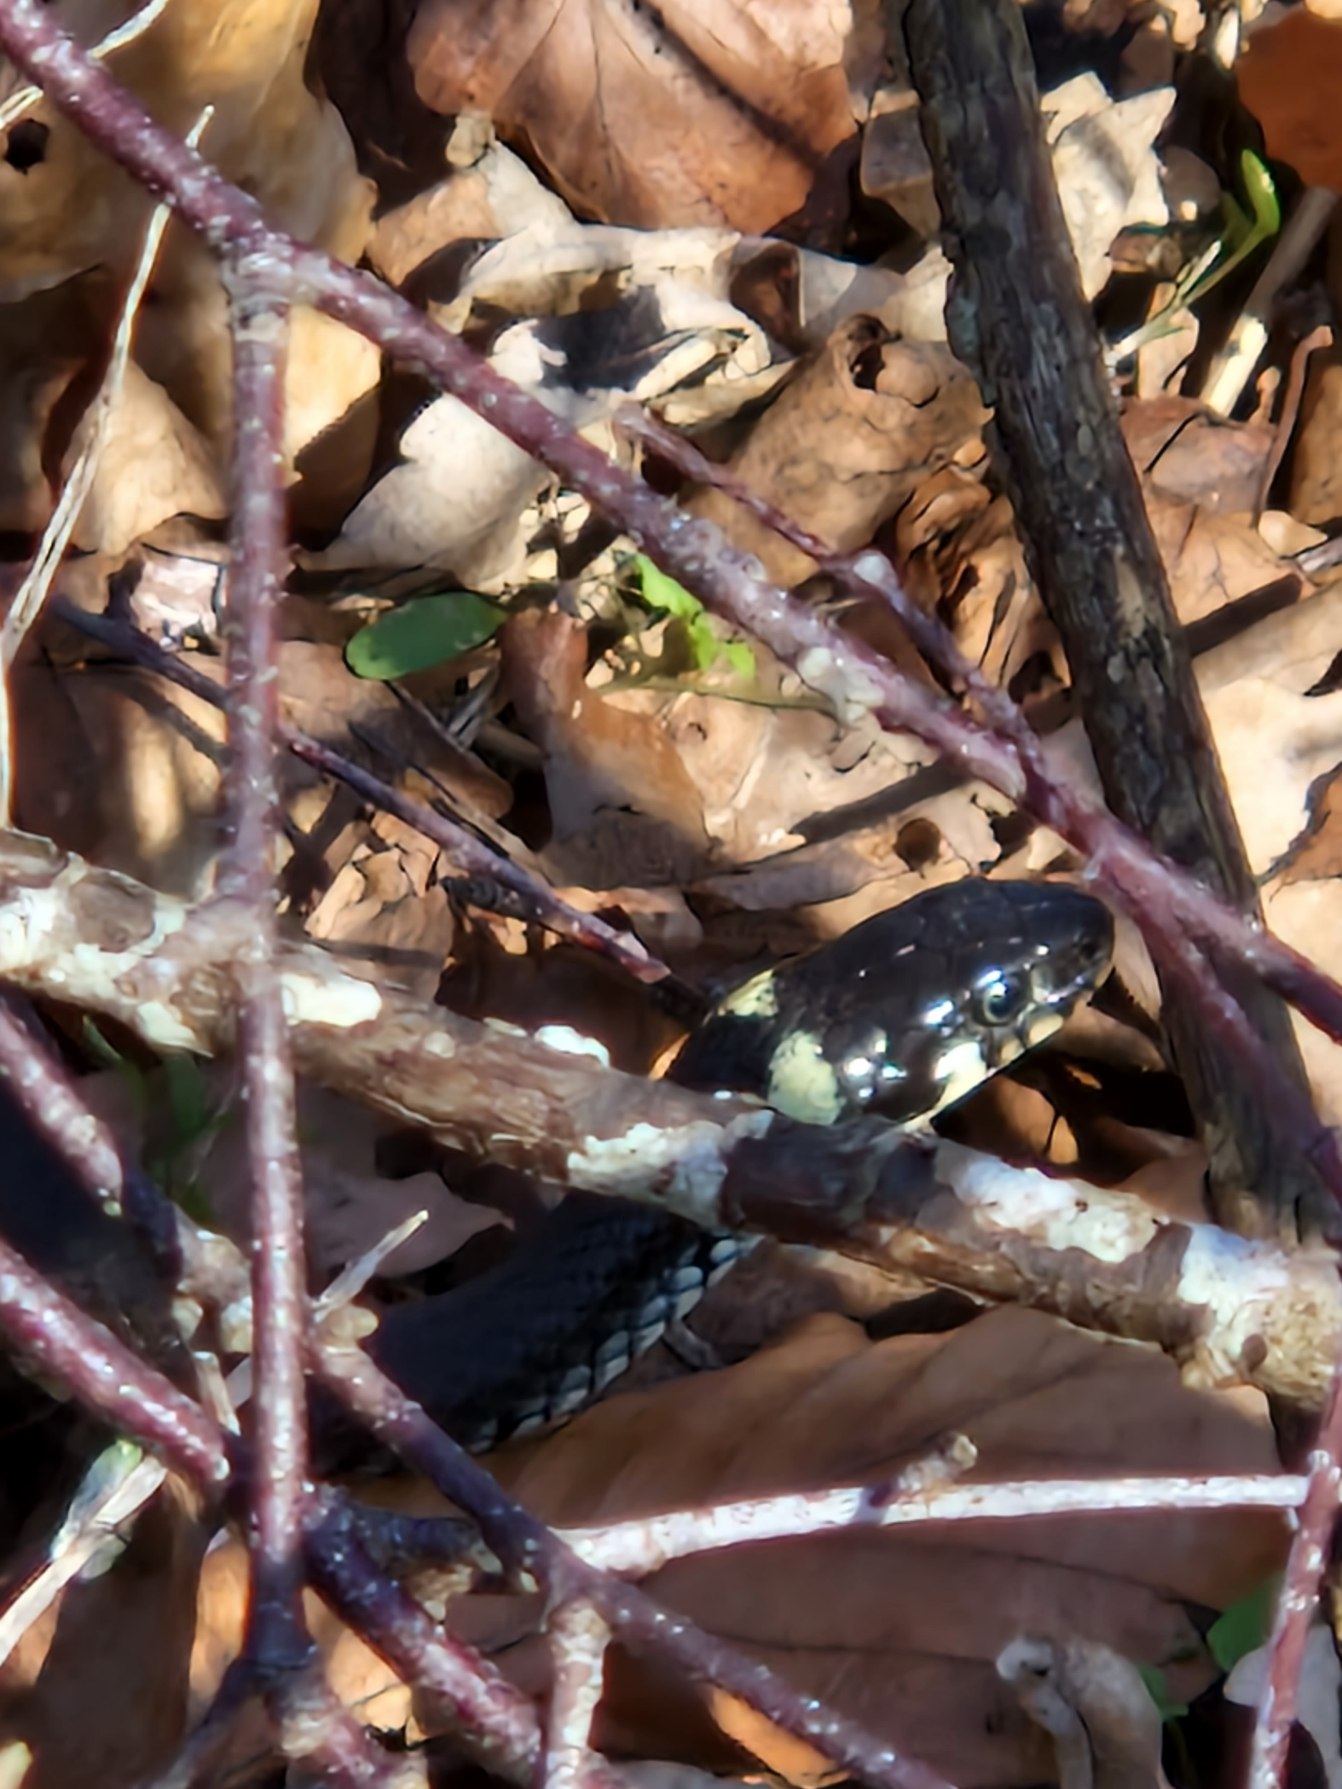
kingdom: Animalia
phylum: Chordata
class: Squamata
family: Colubridae
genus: Natrix
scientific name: Natrix natrix
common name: Snog
